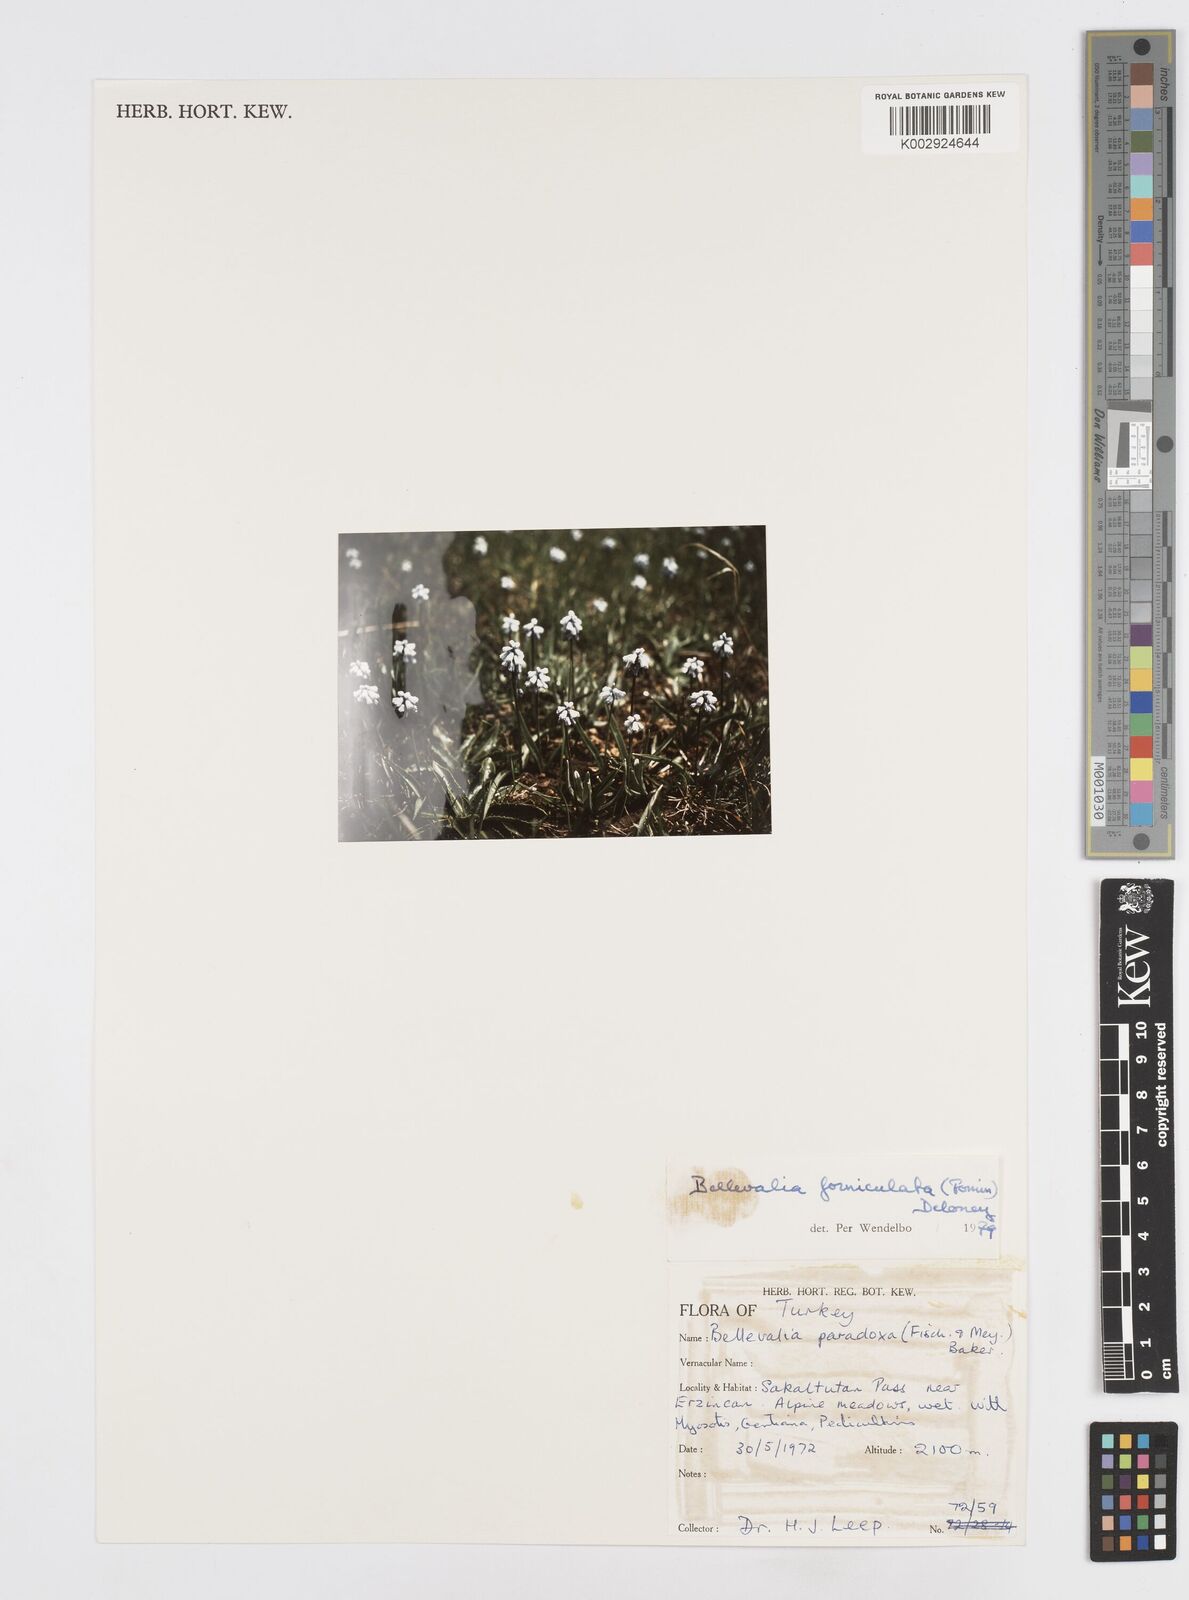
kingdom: Plantae
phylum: Tracheophyta
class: Liliopsida
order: Asparagales
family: Asparagaceae
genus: Muscari
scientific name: Muscari forniculatum
